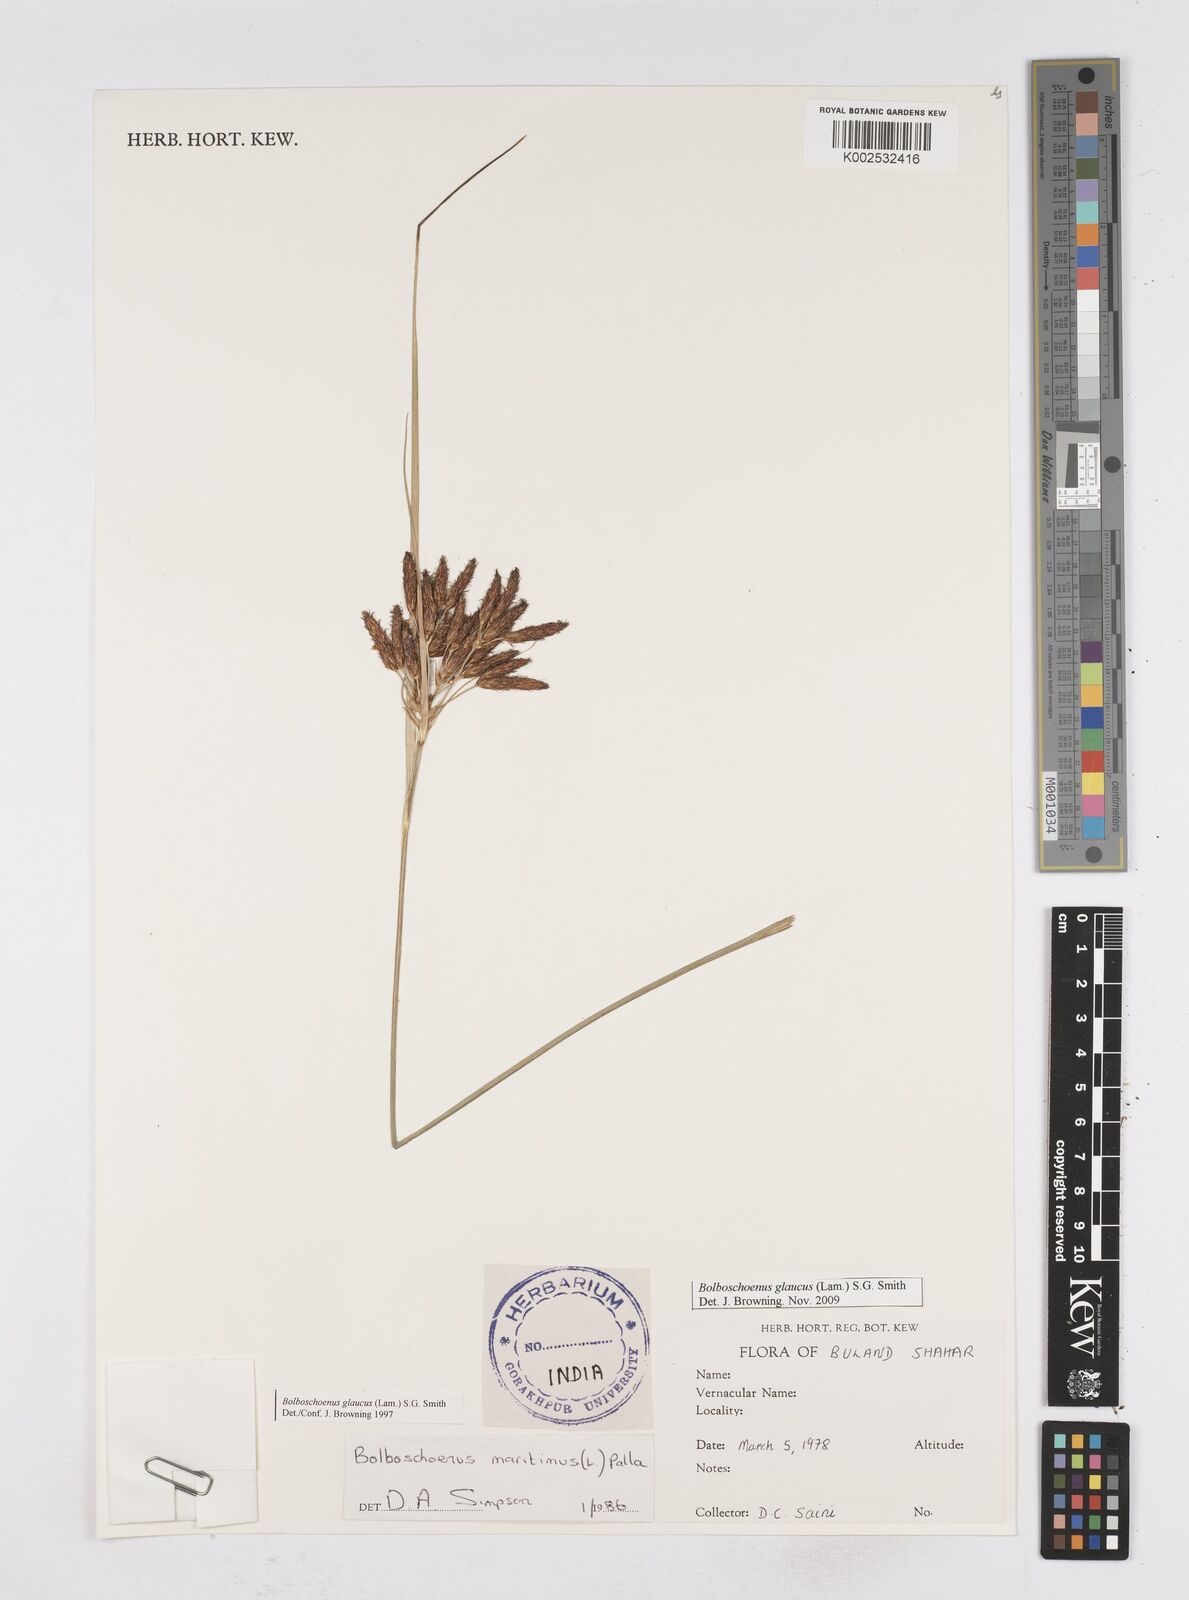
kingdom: Plantae
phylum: Tracheophyta
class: Liliopsida
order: Poales
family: Cyperaceae
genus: Bolboschoenus
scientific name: Bolboschoenus maritimus
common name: Sea club-rush
